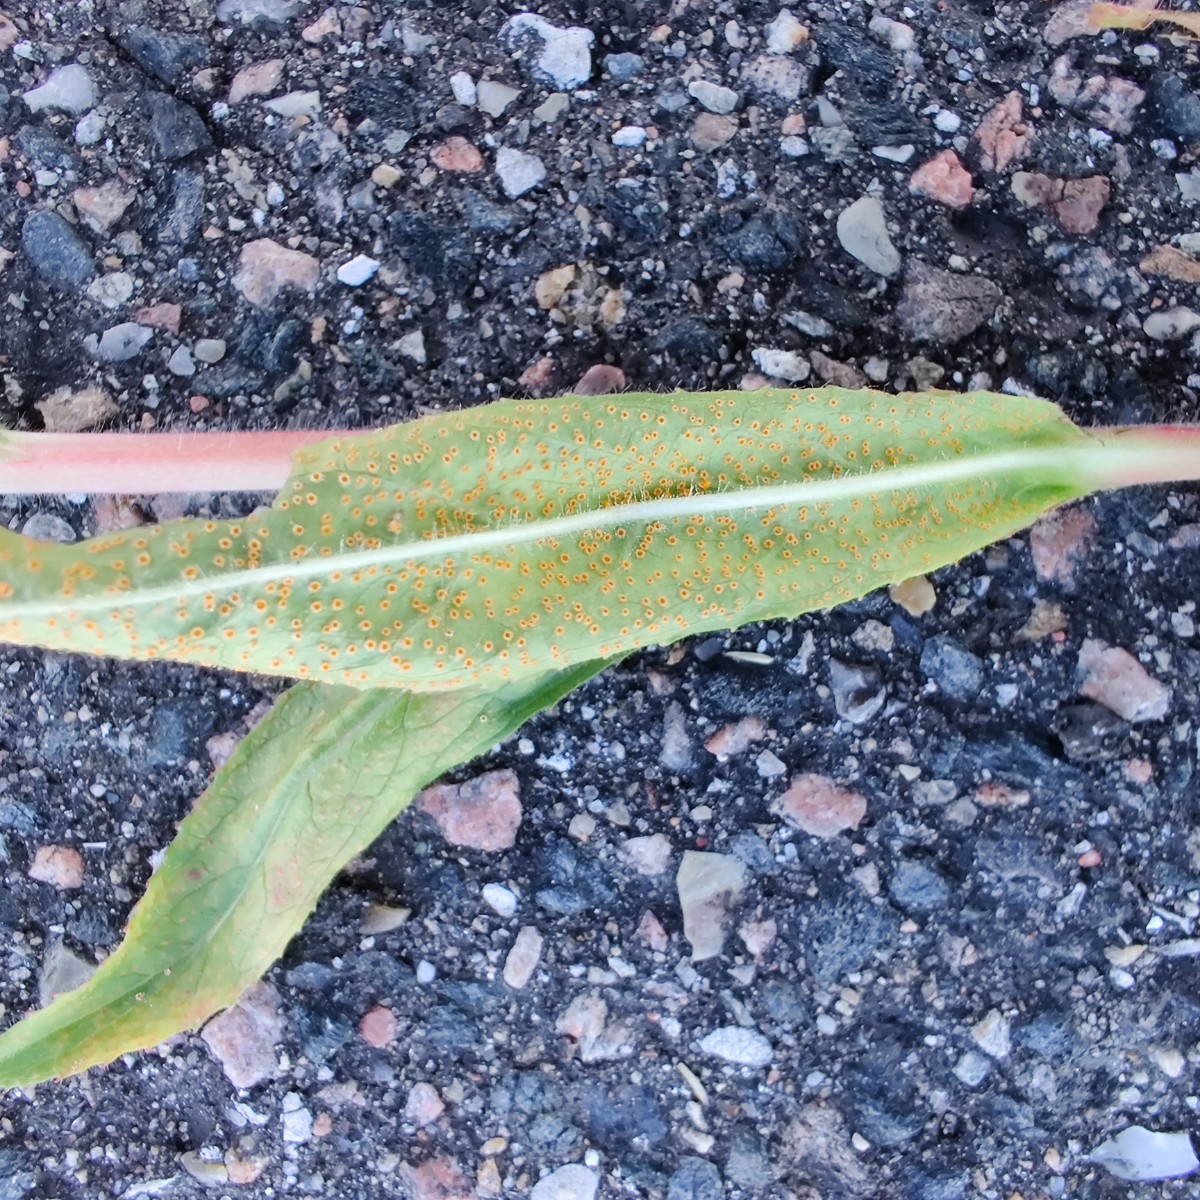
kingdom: Fungi
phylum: Basidiomycota
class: Pucciniomycetes
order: Pucciniales
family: Pucciniaceae
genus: Puccinia
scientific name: Puccinia pulverulenta
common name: dueurt-tvecellerust
